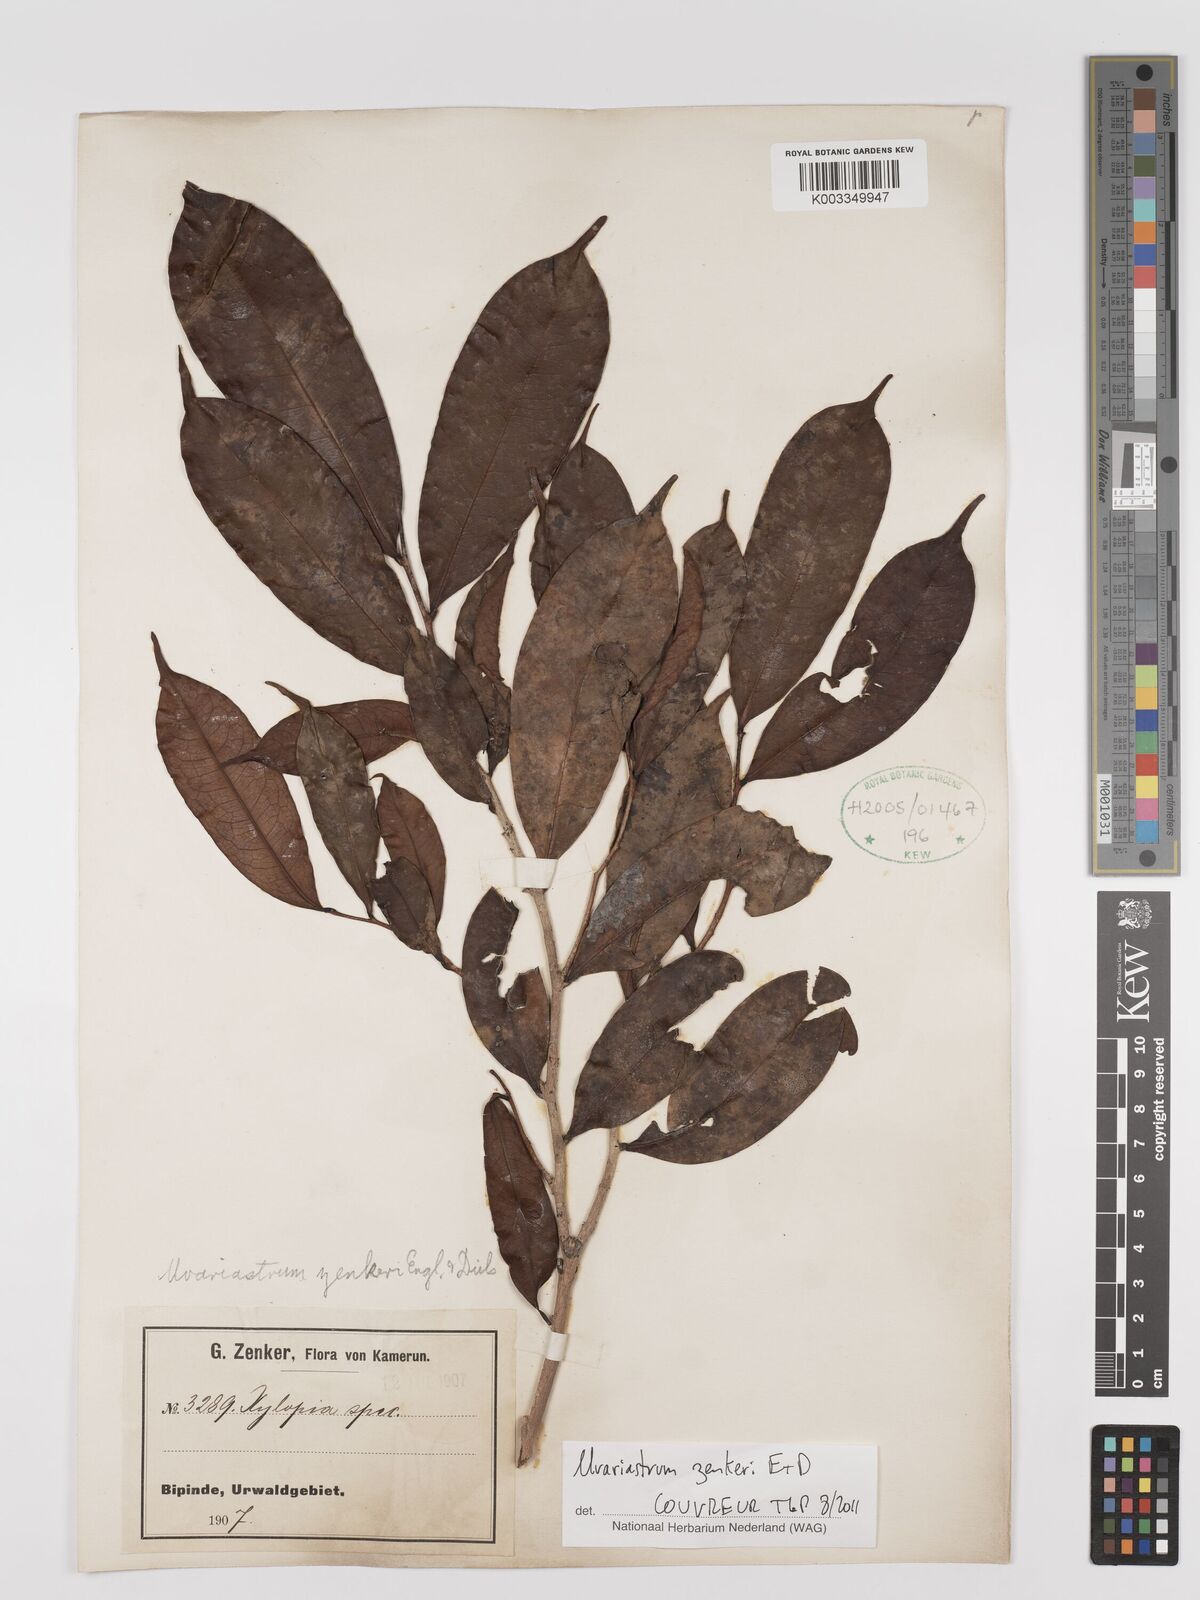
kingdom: Plantae
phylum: Tracheophyta
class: Magnoliopsida
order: Magnoliales
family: Annonaceae
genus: Uvariastrum
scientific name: Uvariastrum zenkeri
